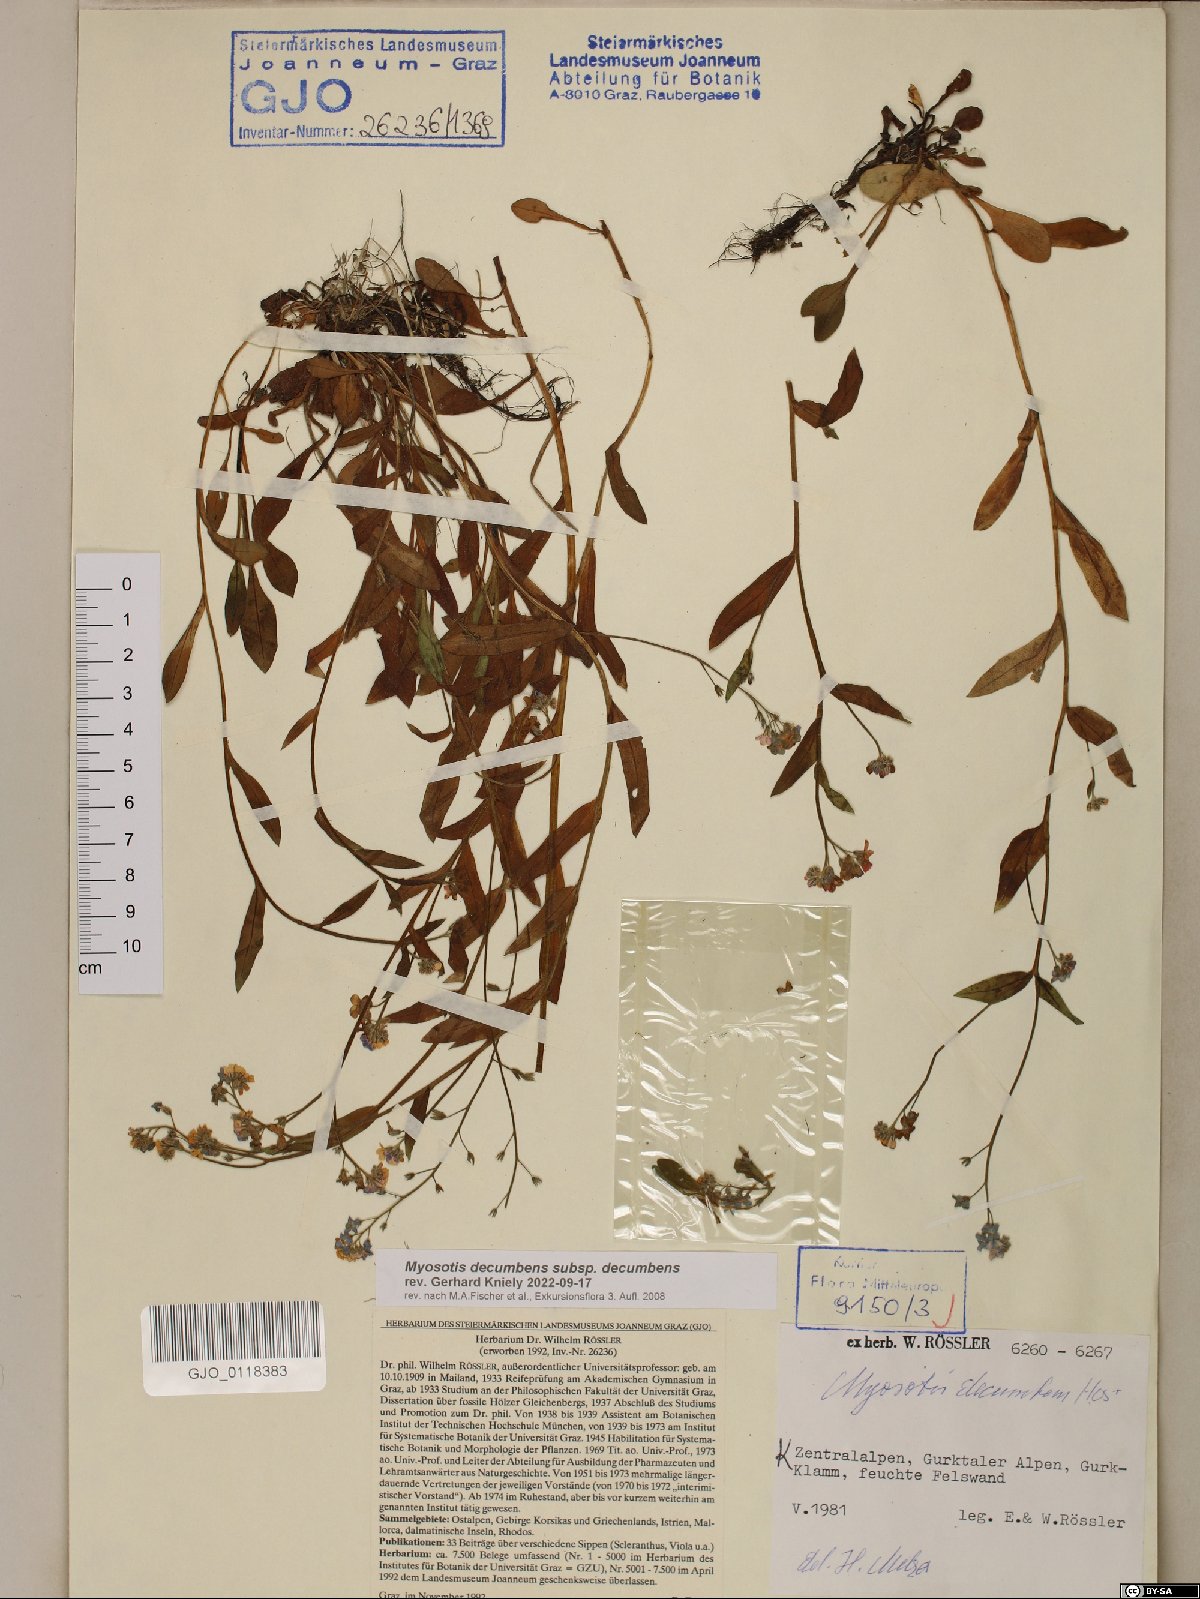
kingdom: Plantae
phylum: Tracheophyta
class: Magnoliopsida
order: Boraginales
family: Boraginaceae
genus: Myosotis
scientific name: Myosotis decumbens
